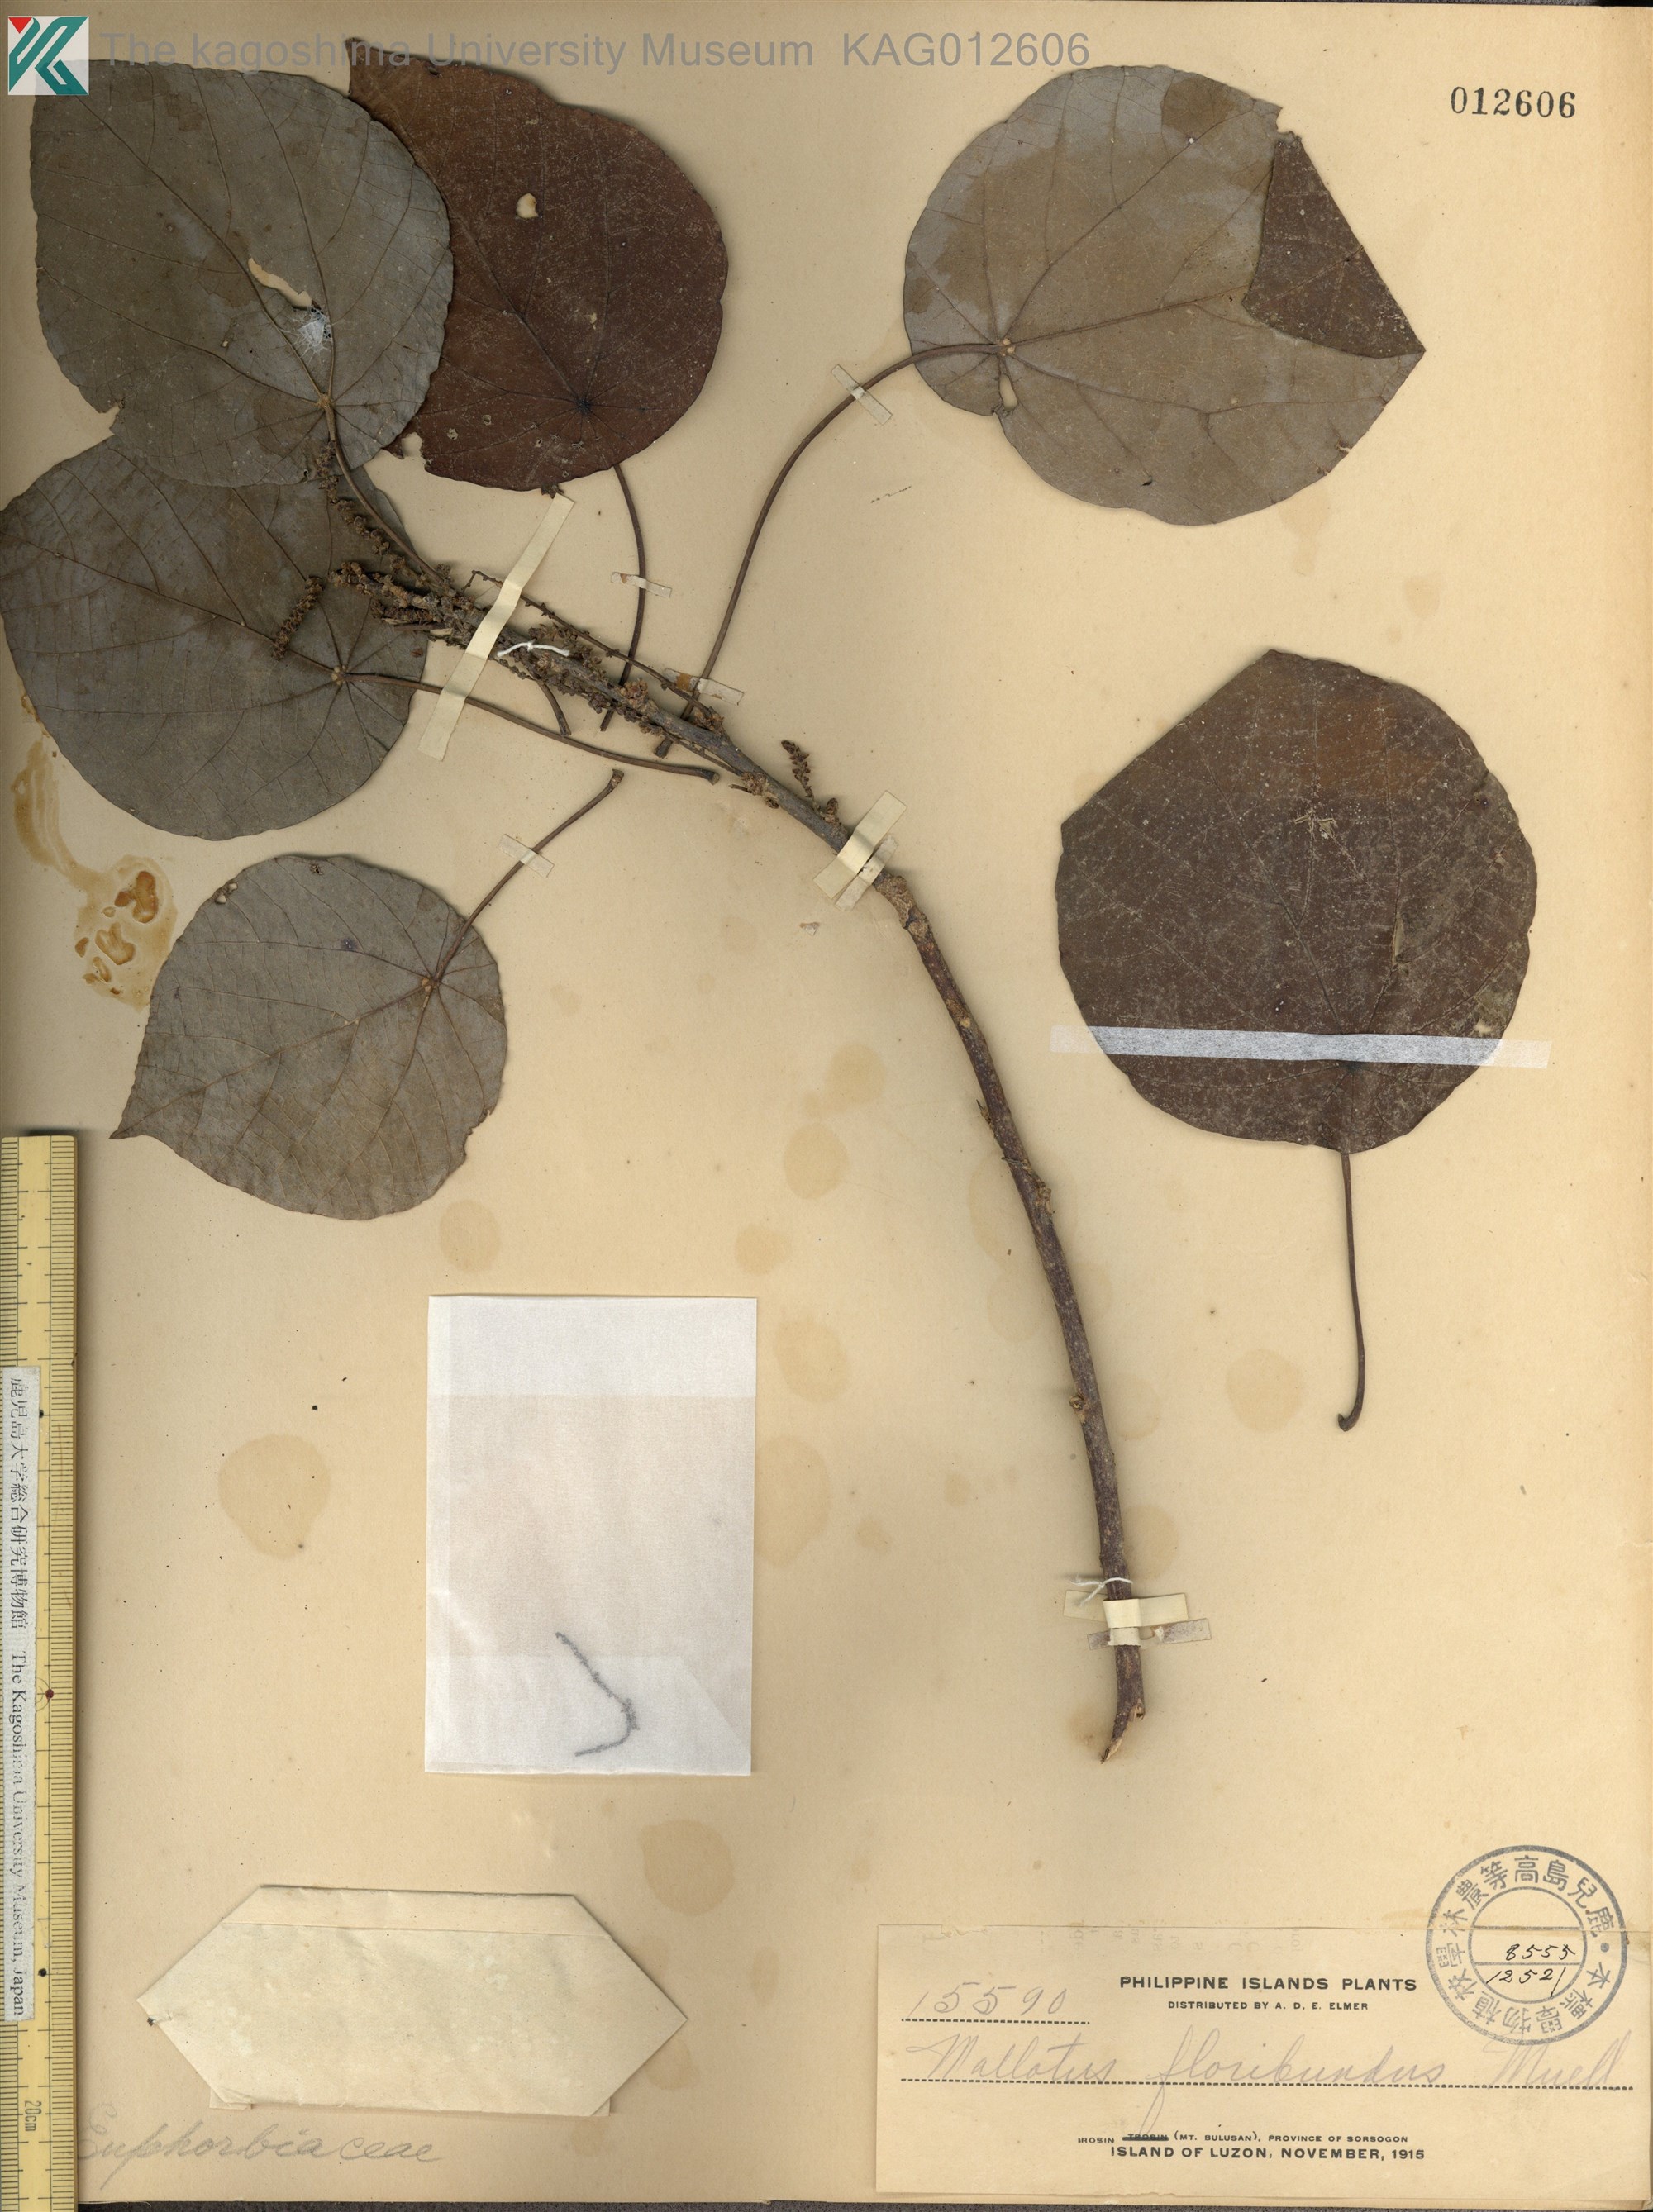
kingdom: Plantae
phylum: Tracheophyta
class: Magnoliopsida
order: Malpighiales
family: Euphorbiaceae
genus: Mallotus
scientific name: Mallotus floribundus
